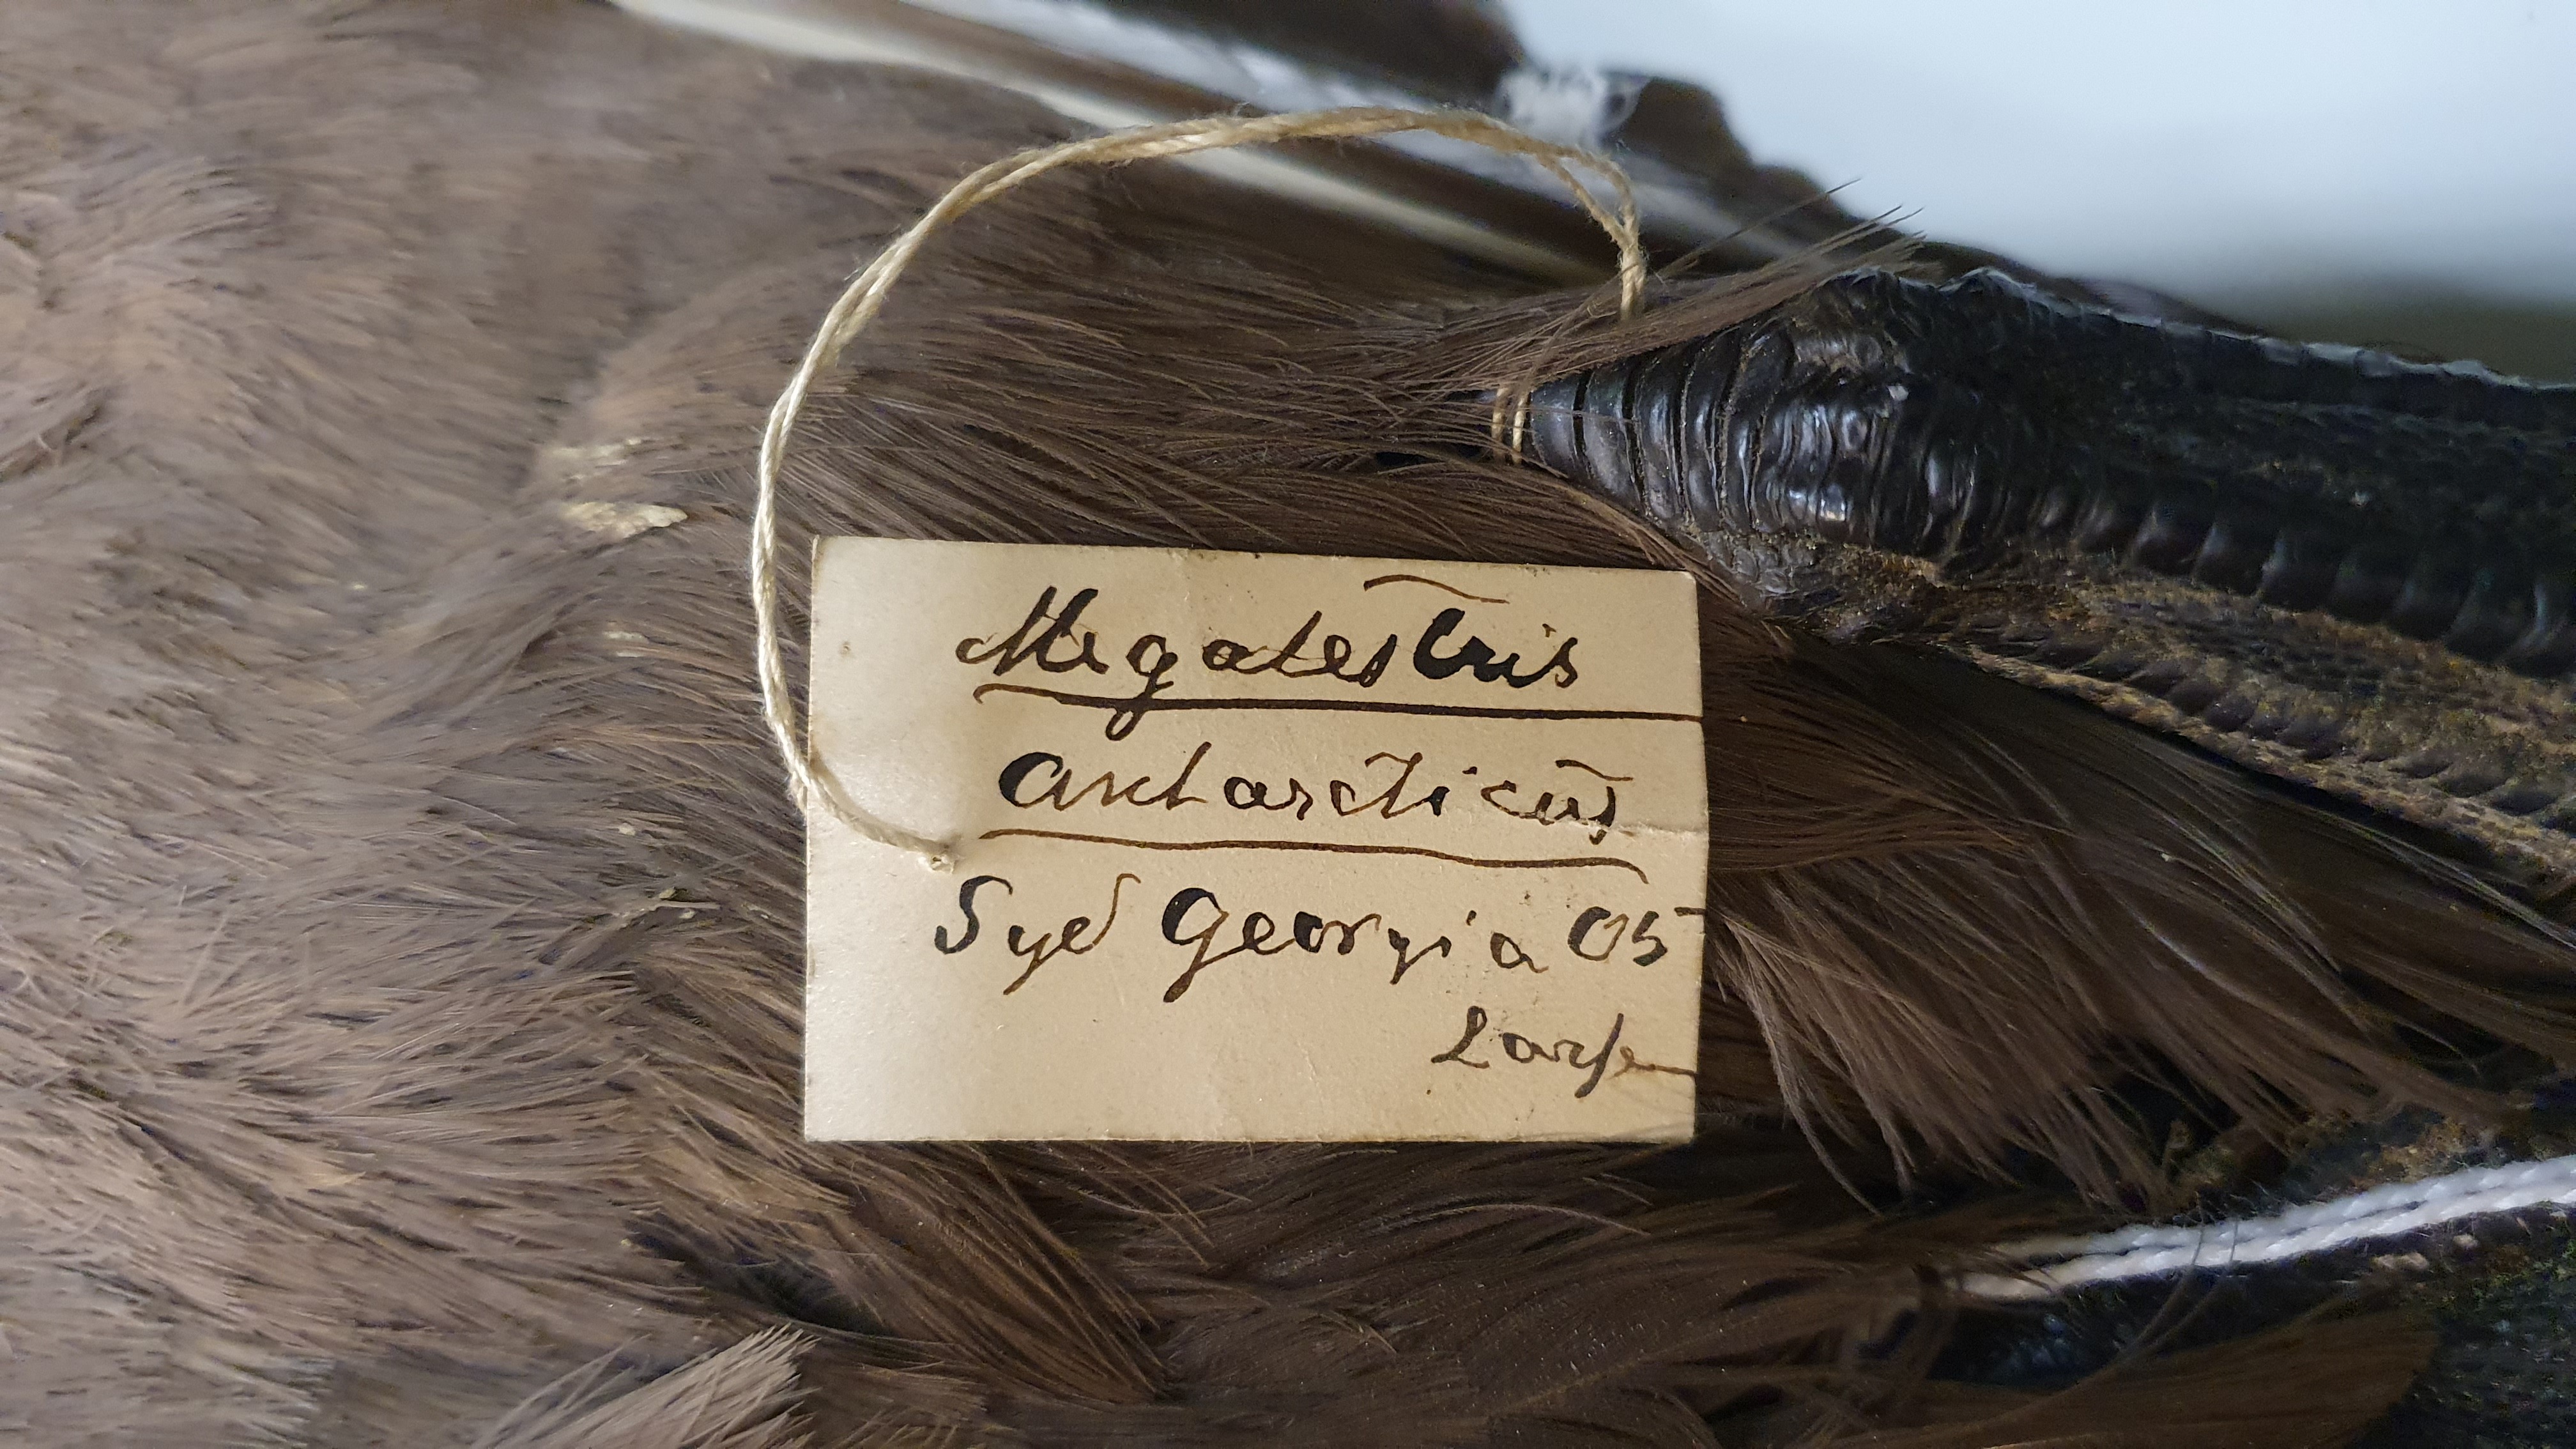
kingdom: Animalia
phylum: Chordata
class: Aves
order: Charadriiformes
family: Stercorariidae
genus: Stercorarius
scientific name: Stercorarius antarcticus
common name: Brown skua
